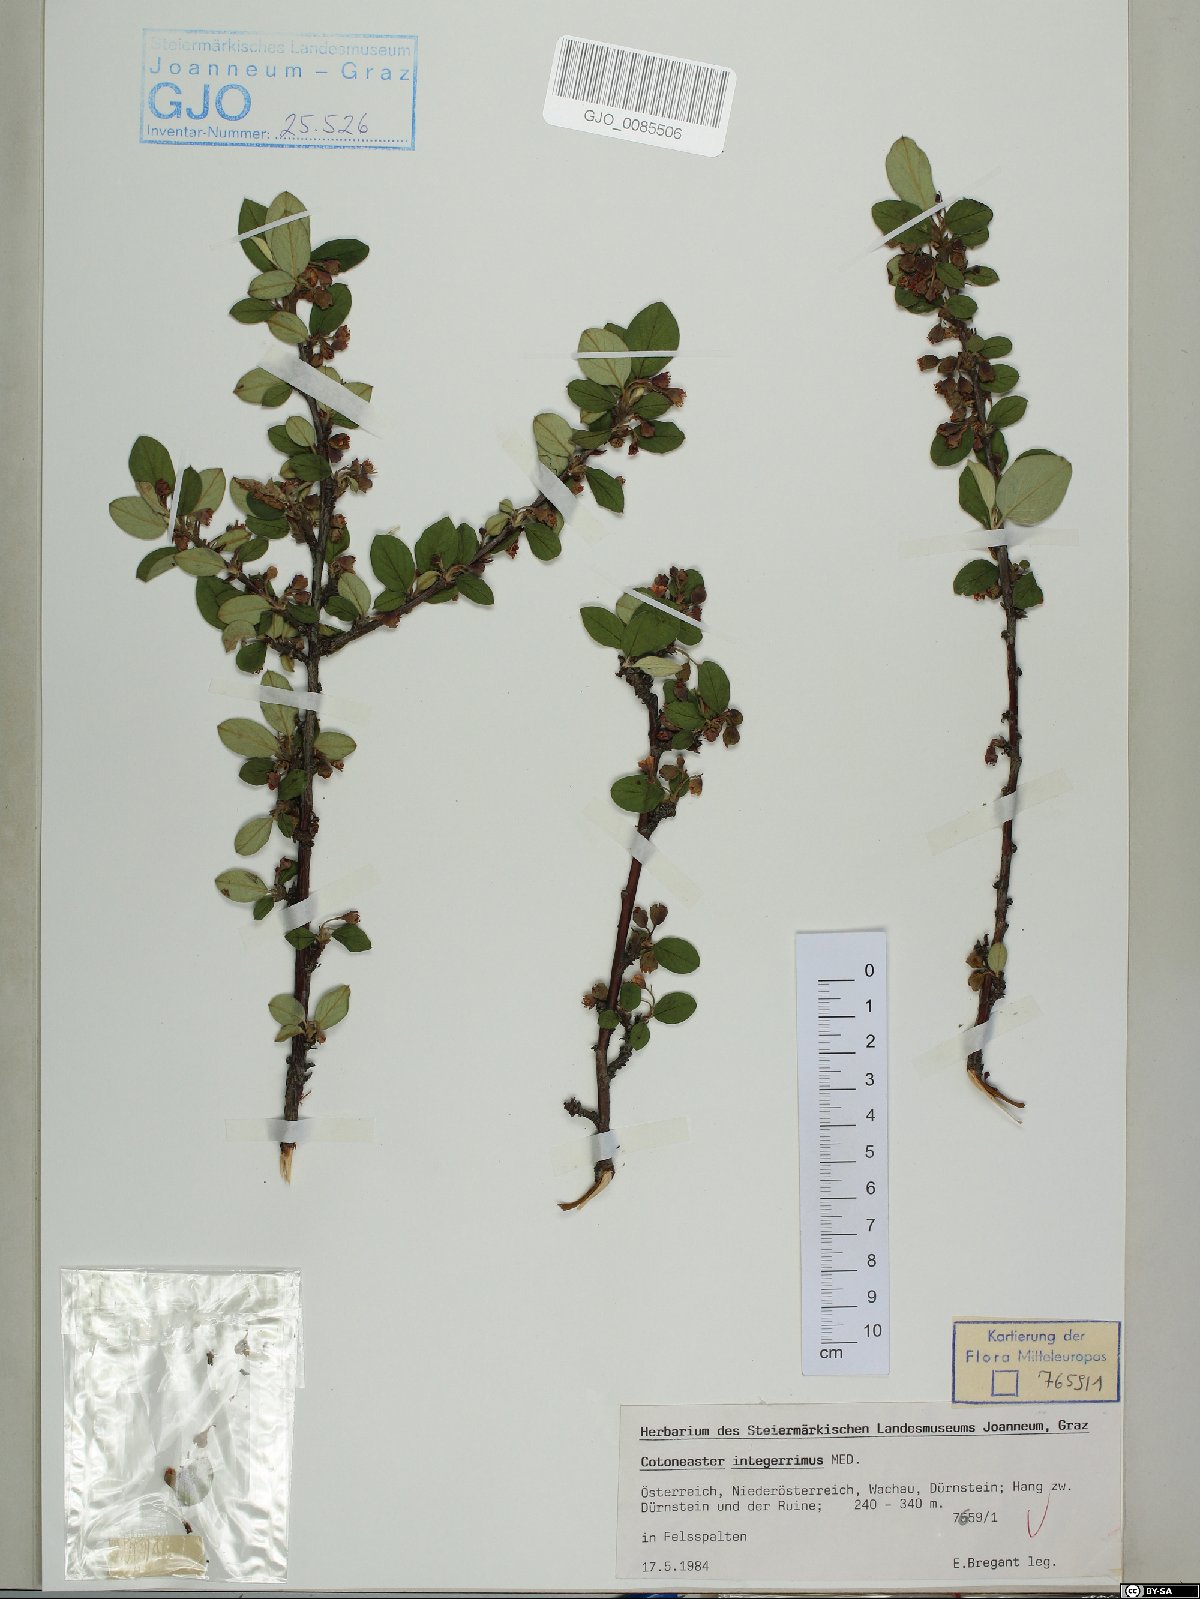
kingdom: Plantae
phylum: Tracheophyta
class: Magnoliopsida
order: Rosales
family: Rosaceae
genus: Cotoneaster
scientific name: Cotoneaster integerrimus
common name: Wild cotoneaster
